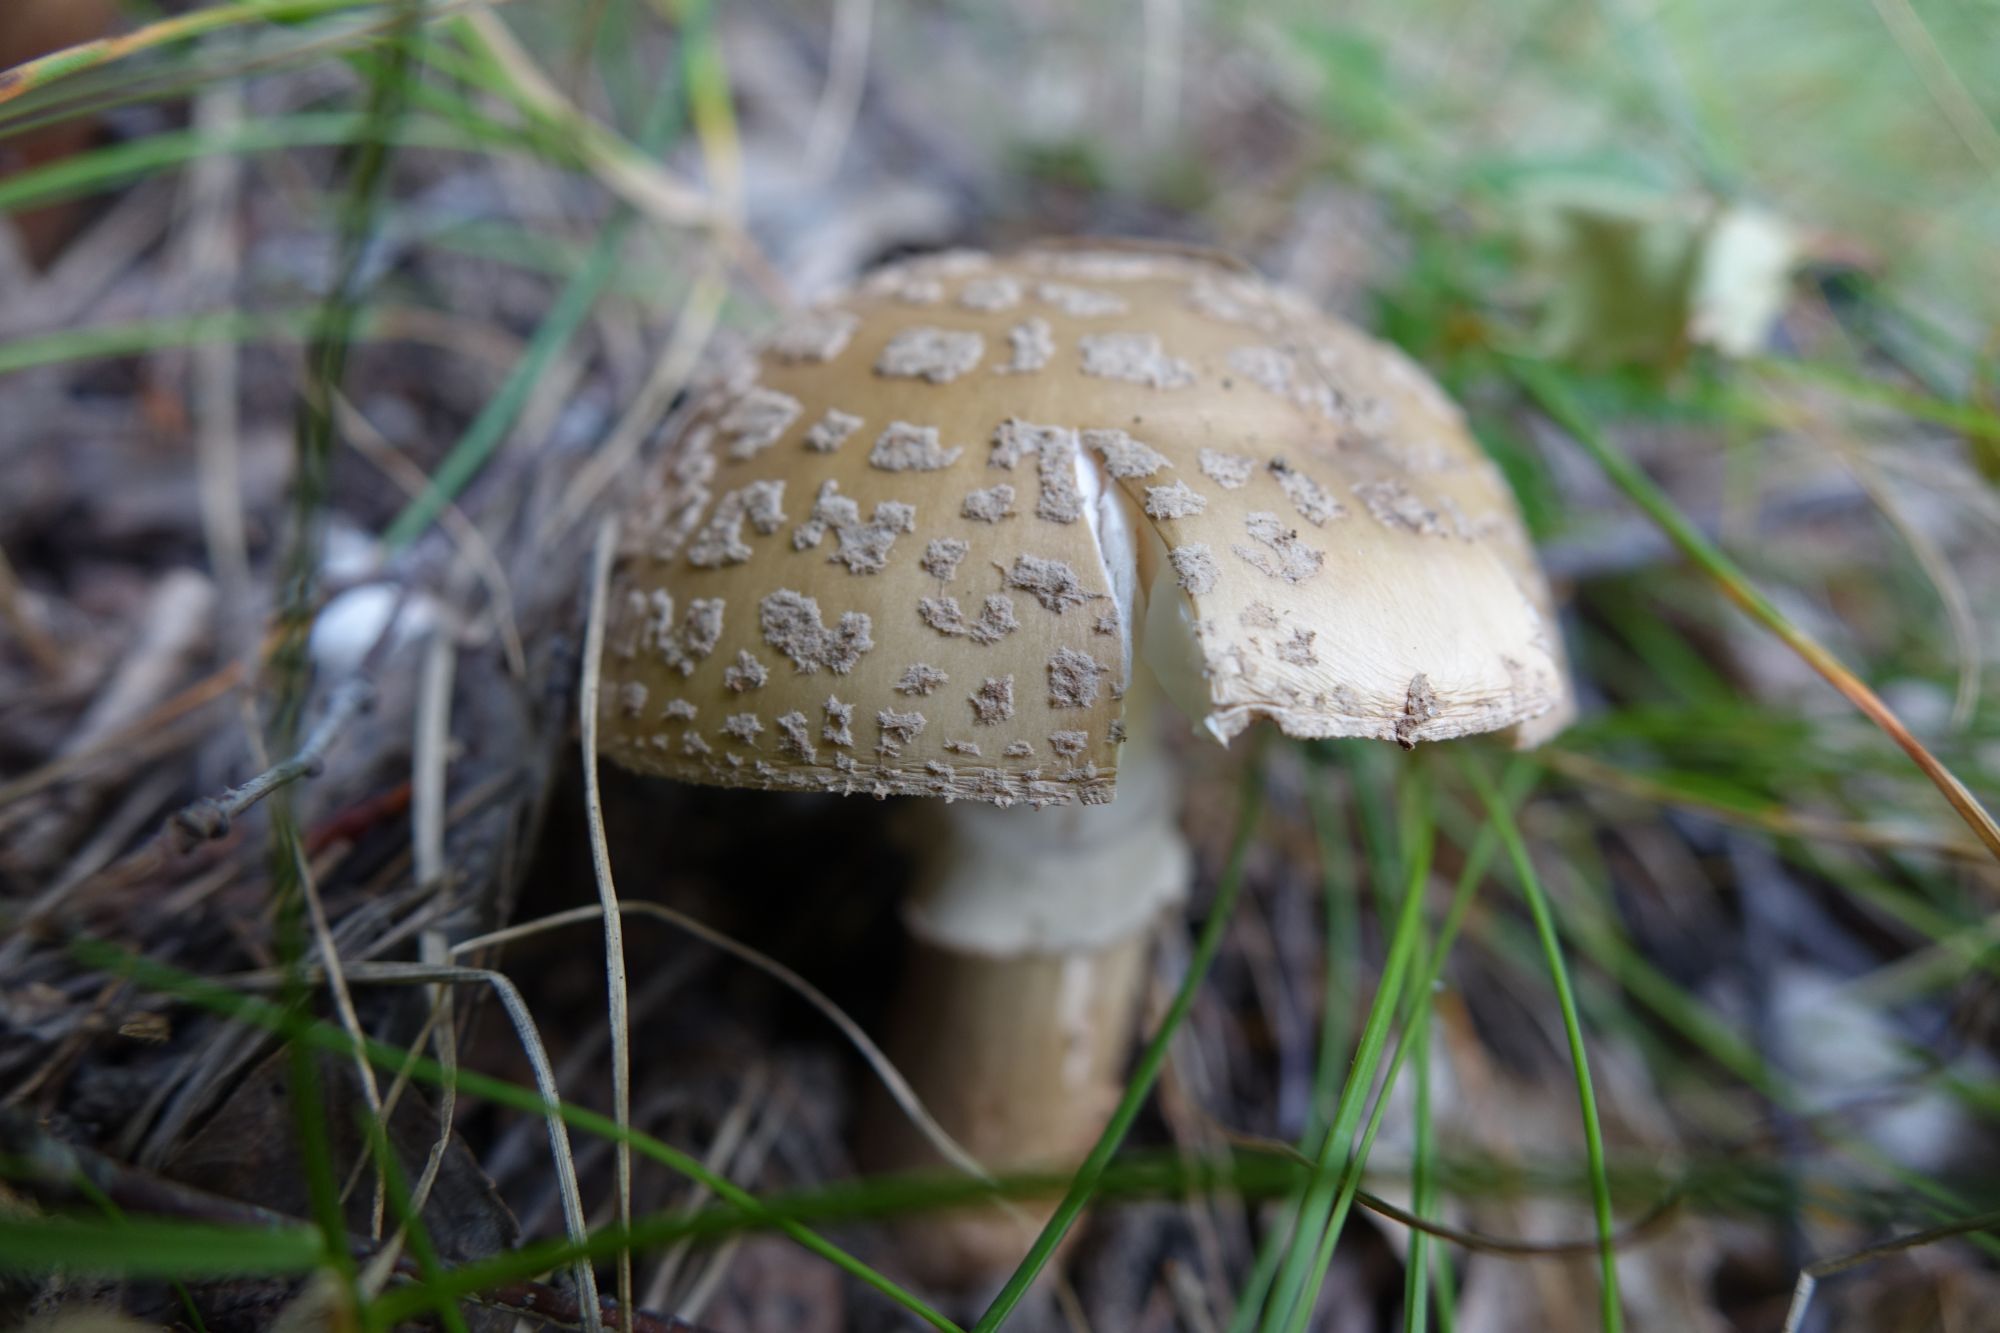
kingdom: Fungi
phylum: Basidiomycota
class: Agaricomycetes
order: Agaricales
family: Amanitaceae
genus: Amanita
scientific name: Amanita rubescens
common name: Blusher
